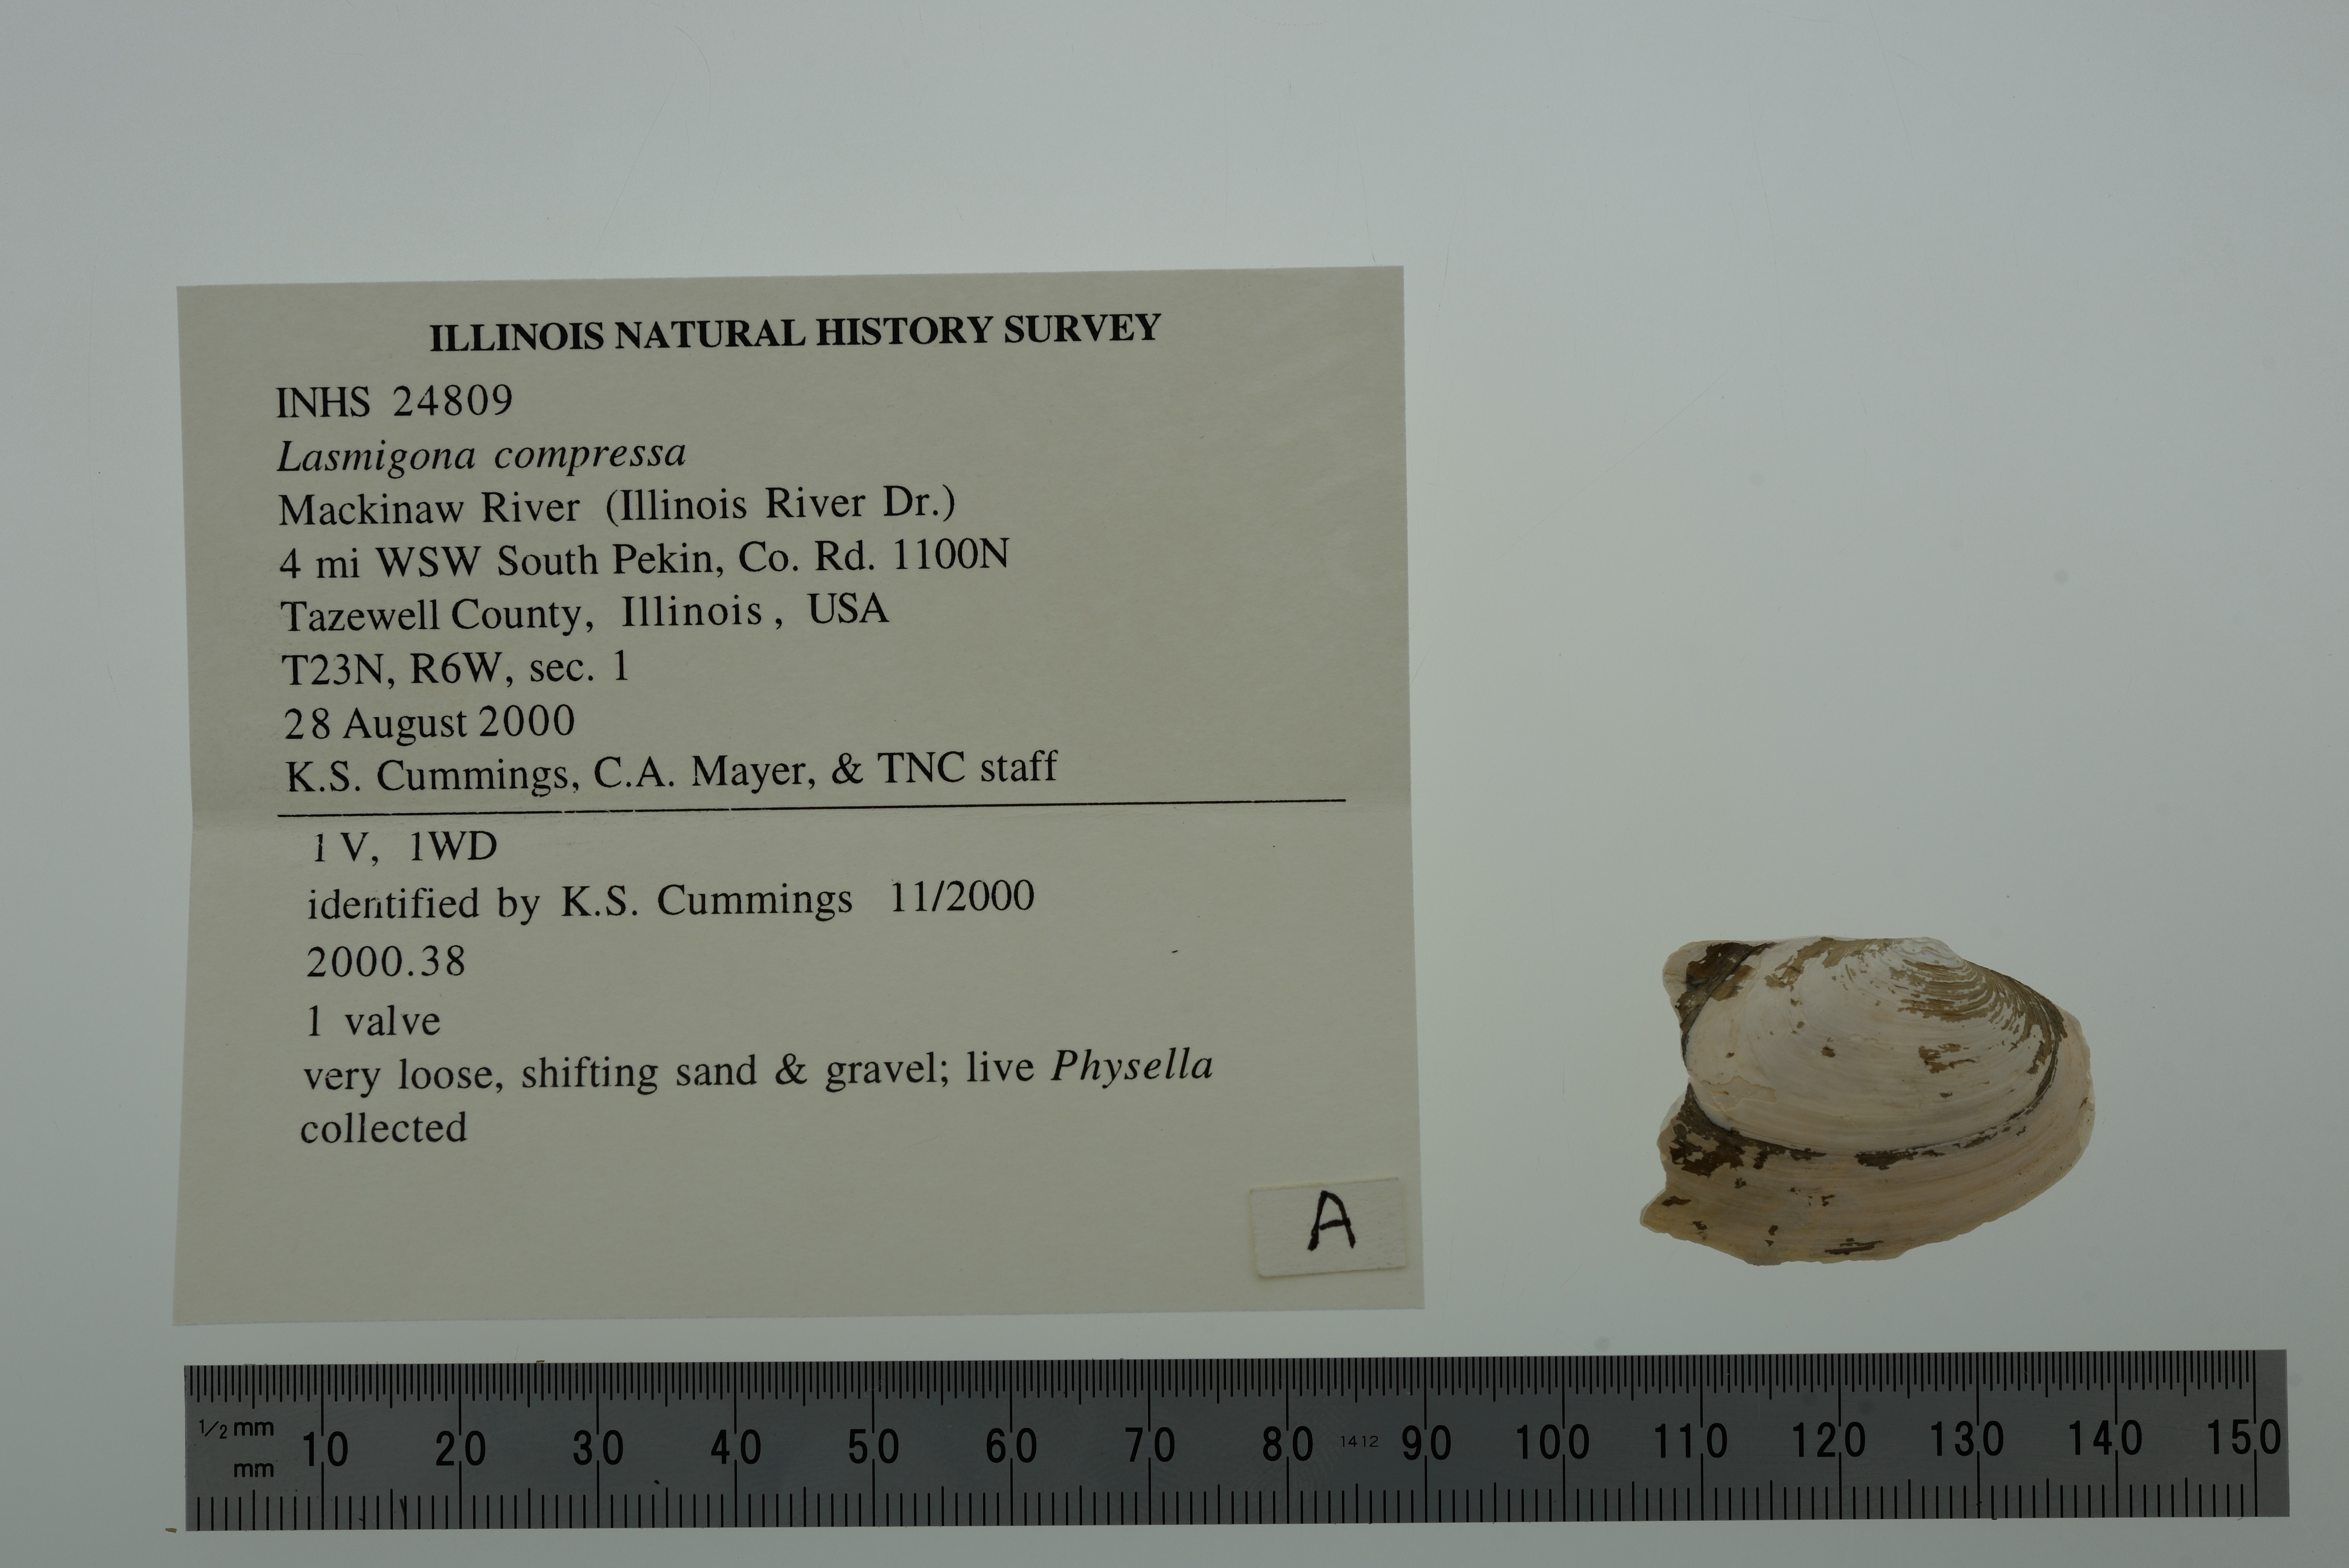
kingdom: Animalia
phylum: Mollusca
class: Bivalvia
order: Unionida
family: Unionidae
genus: Lasmigona
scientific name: Lasmigona compressa
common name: Creek heelsplitter
